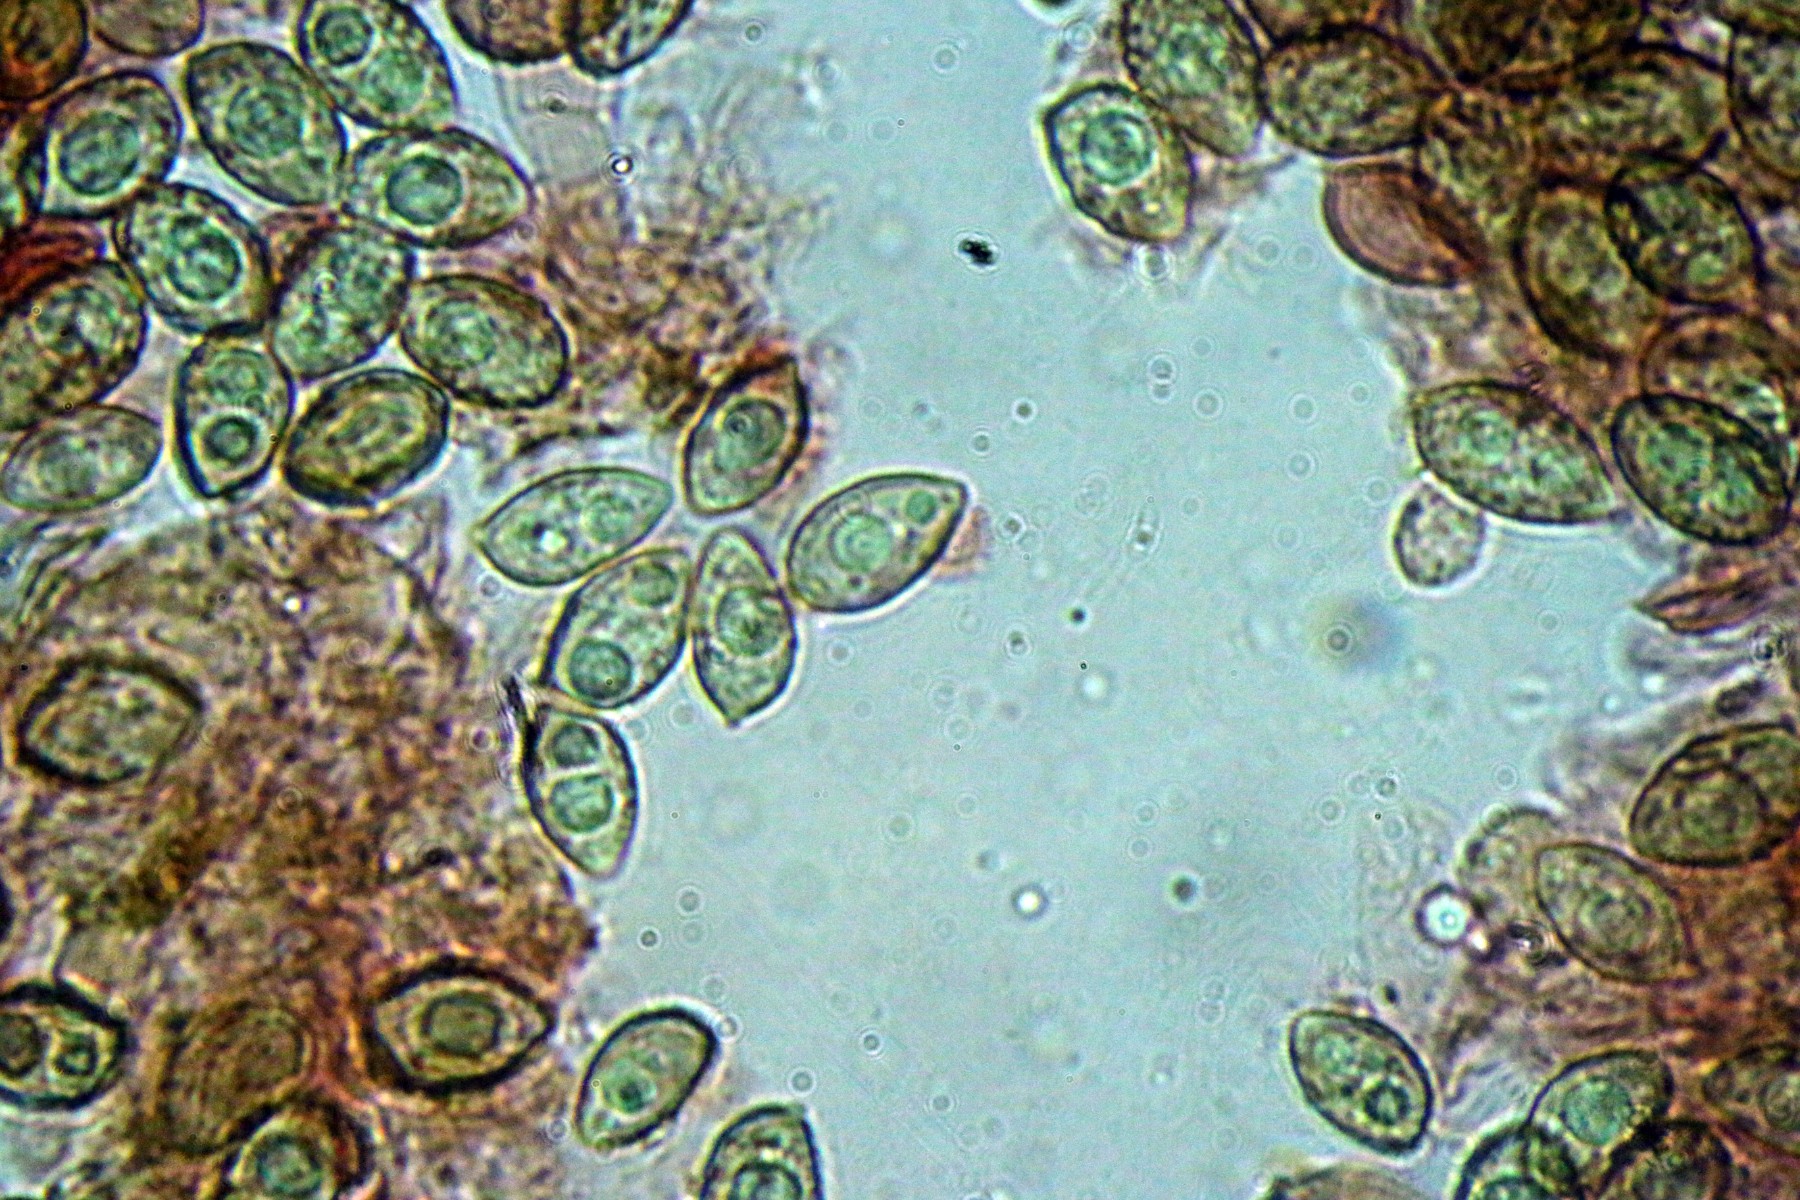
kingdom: Fungi
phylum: Basidiomycota
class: Agaricomycetes
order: Agaricales
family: Hymenogastraceae
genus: Galerina
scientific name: Galerina
